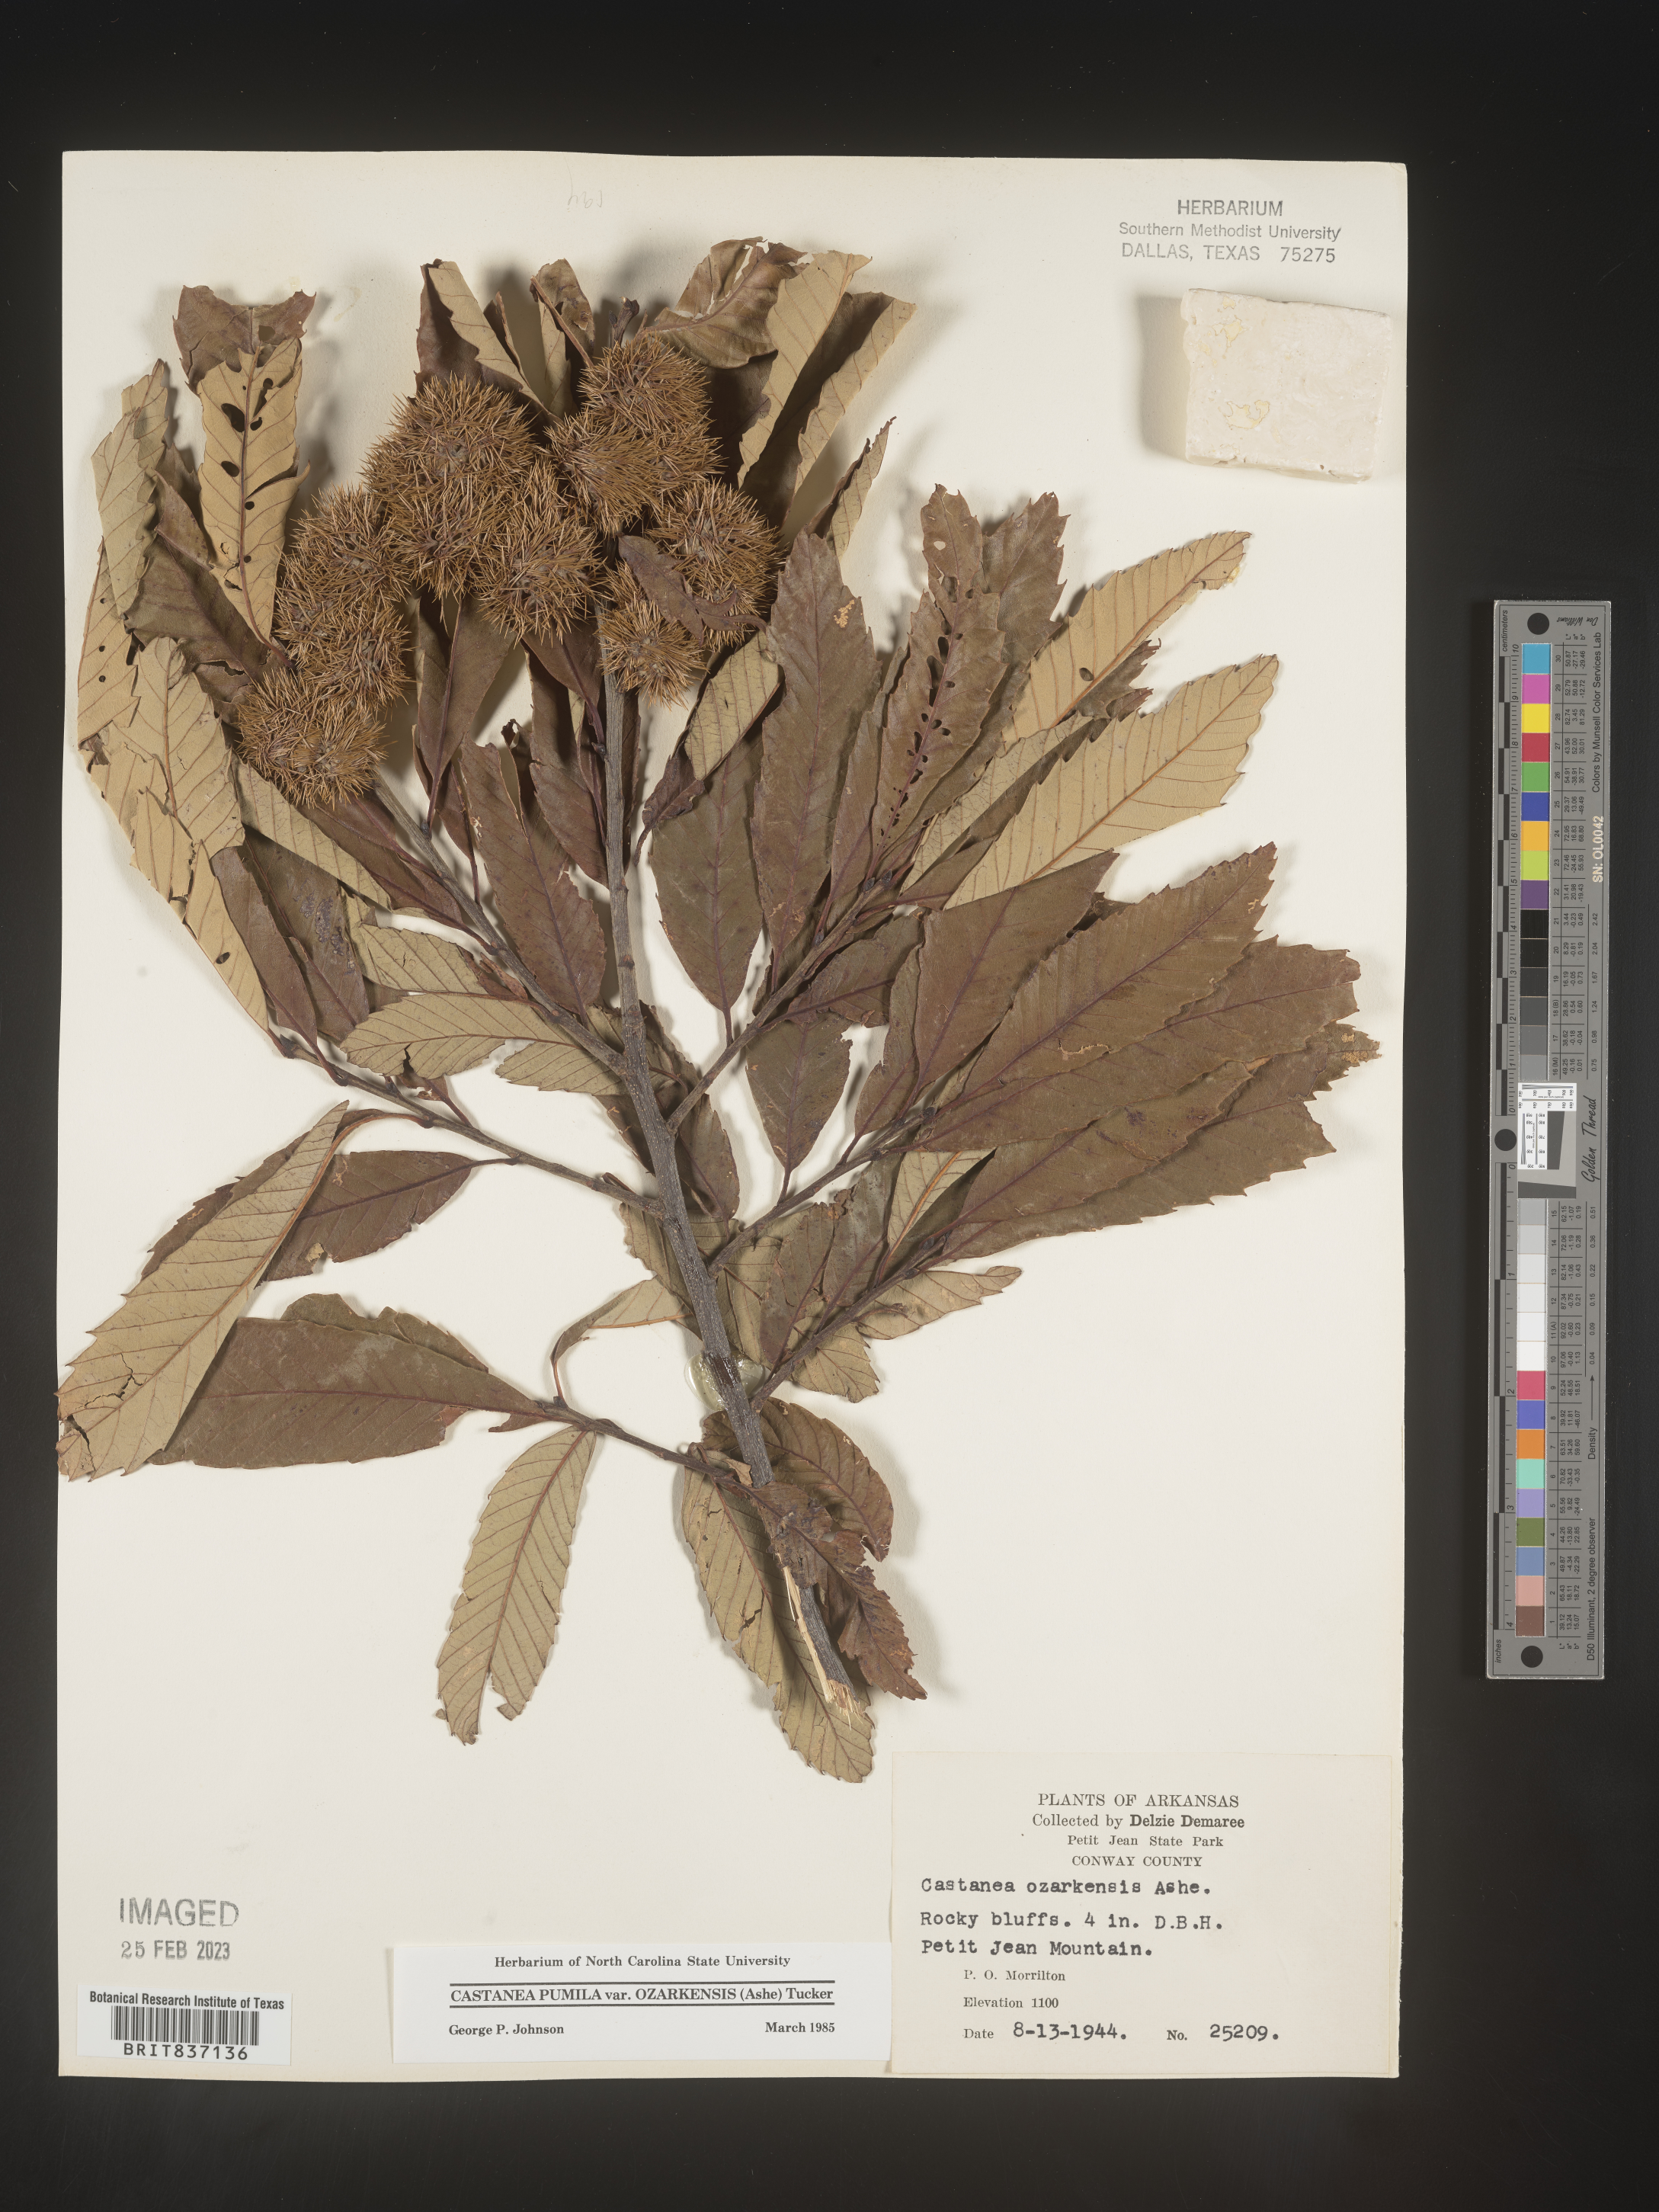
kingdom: Plantae
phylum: Tracheophyta
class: Magnoliopsida
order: Fagales
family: Fagaceae
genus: Castanea
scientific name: Castanea pumila
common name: Chinkapin
